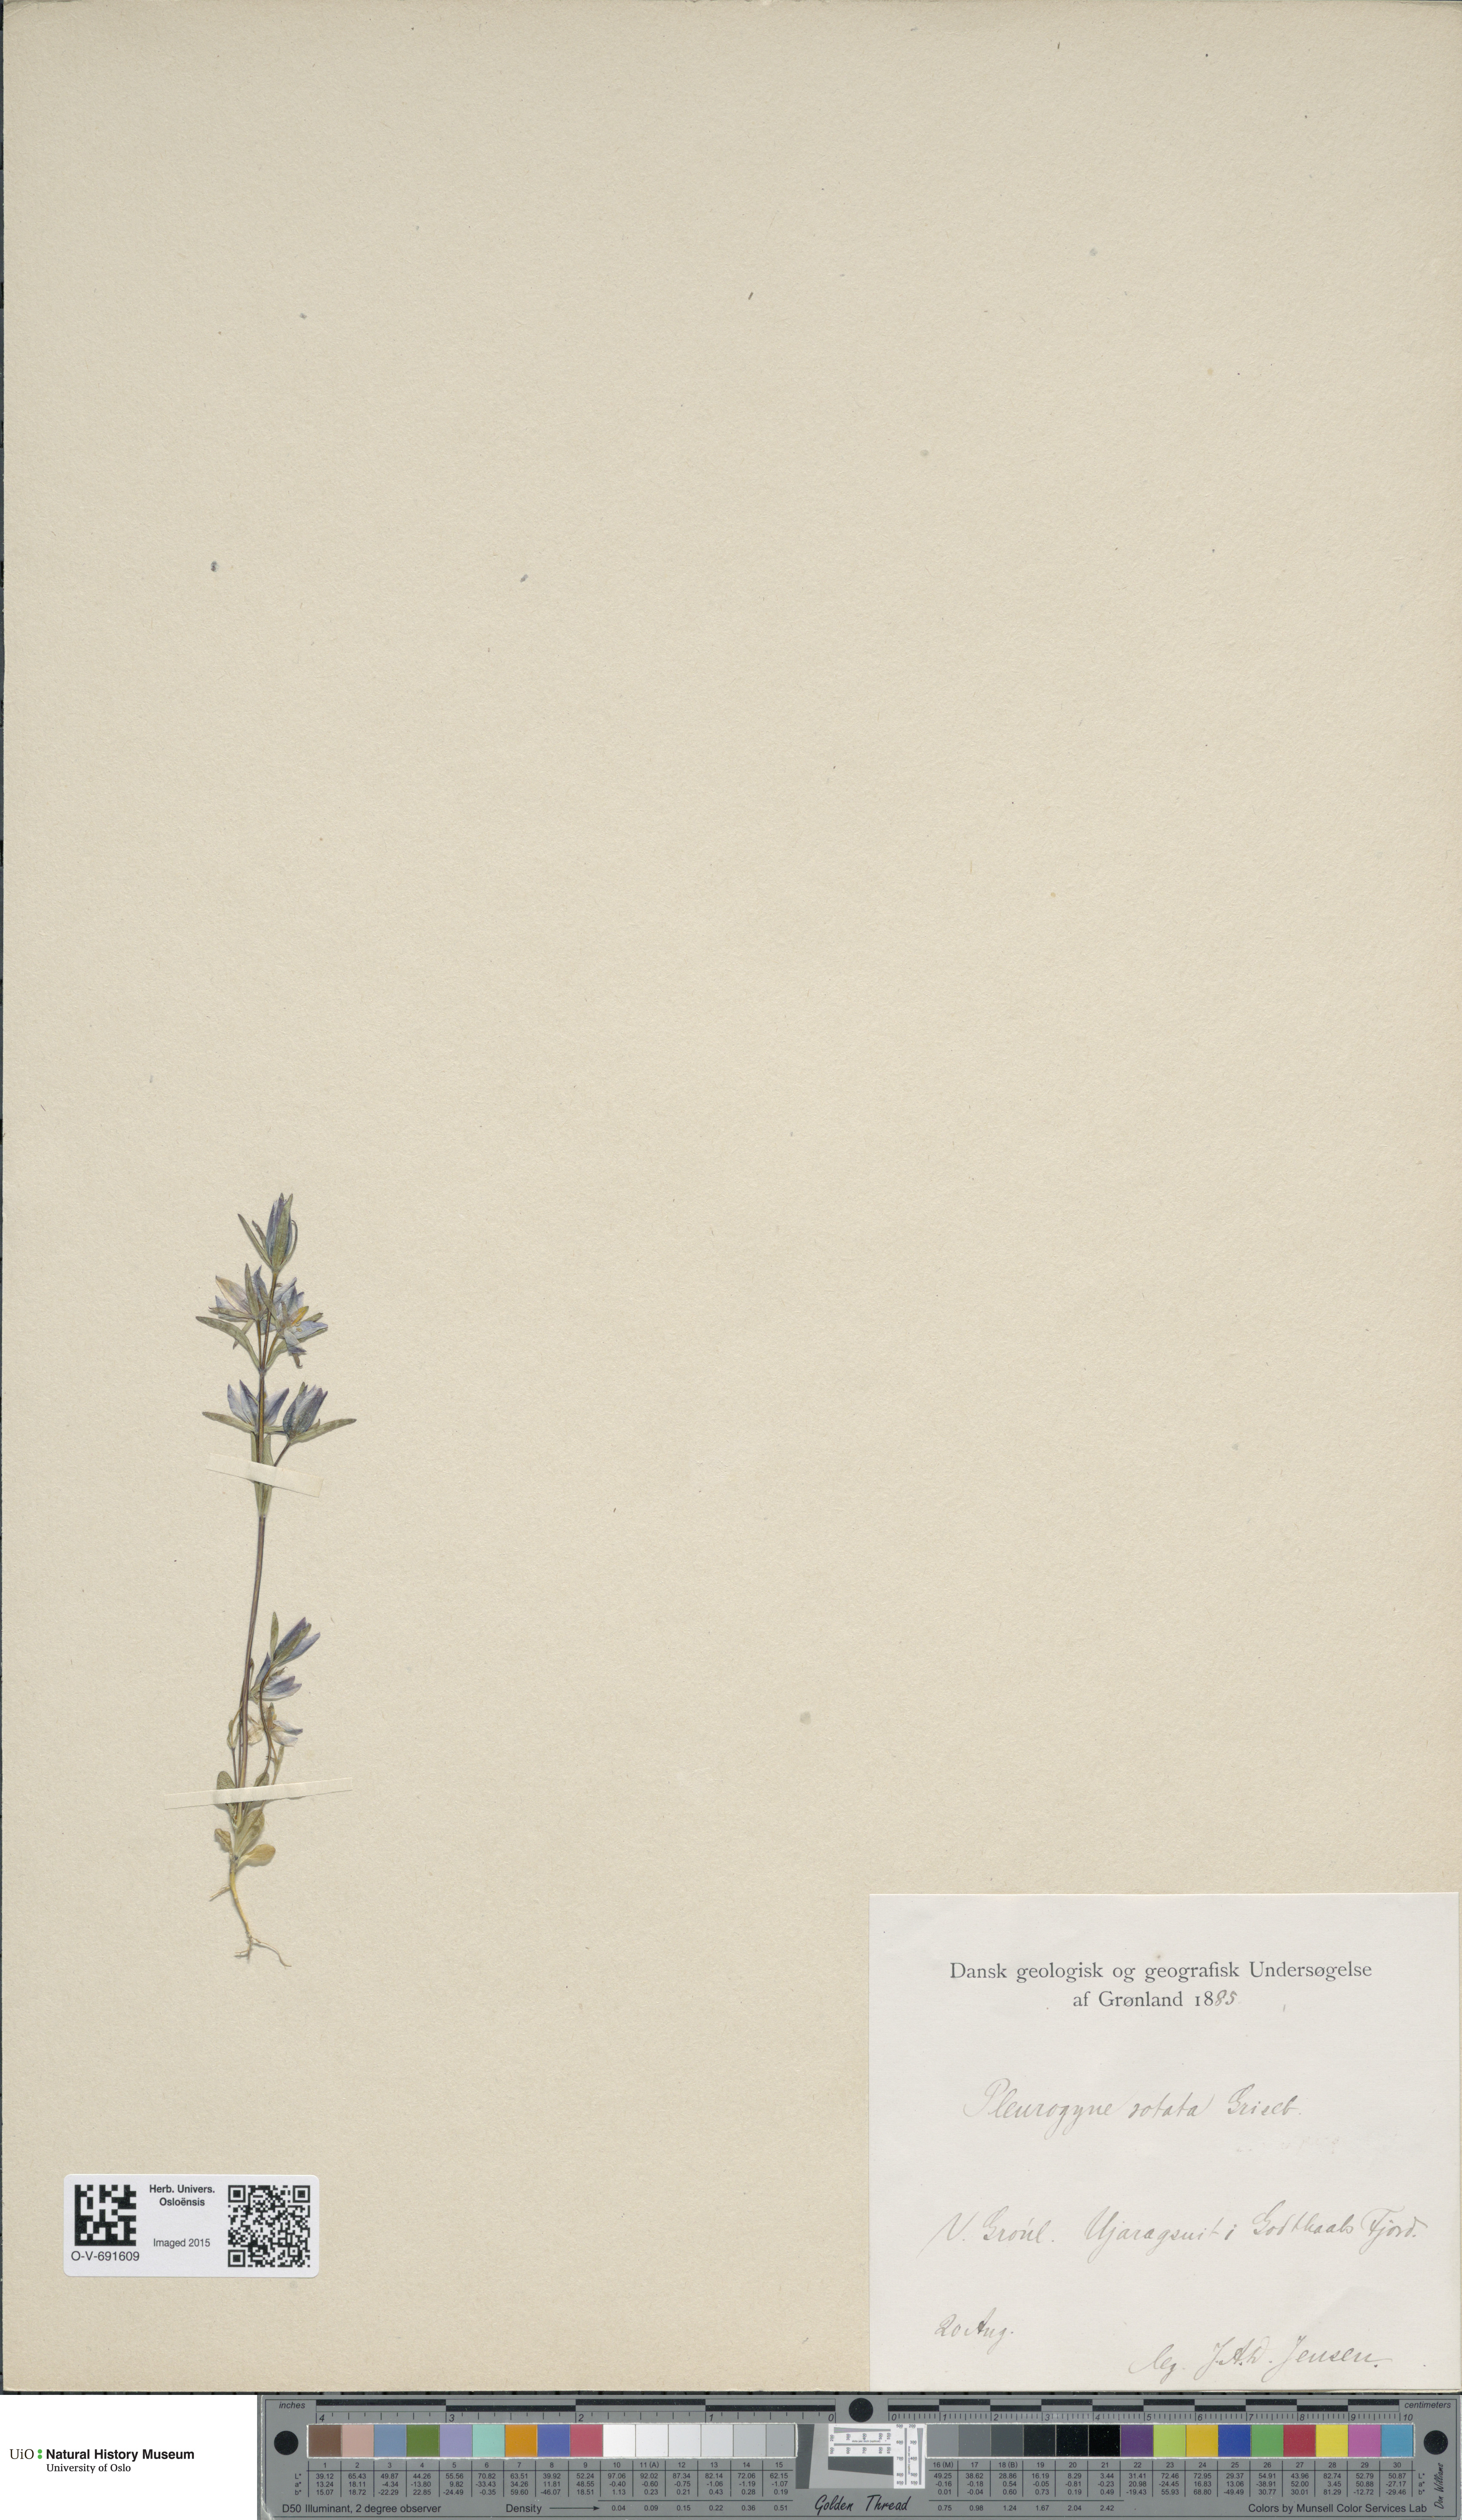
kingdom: Plantae
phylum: Tracheophyta
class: Magnoliopsida
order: Gentianales
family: Gentianaceae
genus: Lomatogonium
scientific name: Lomatogonium rotatum
